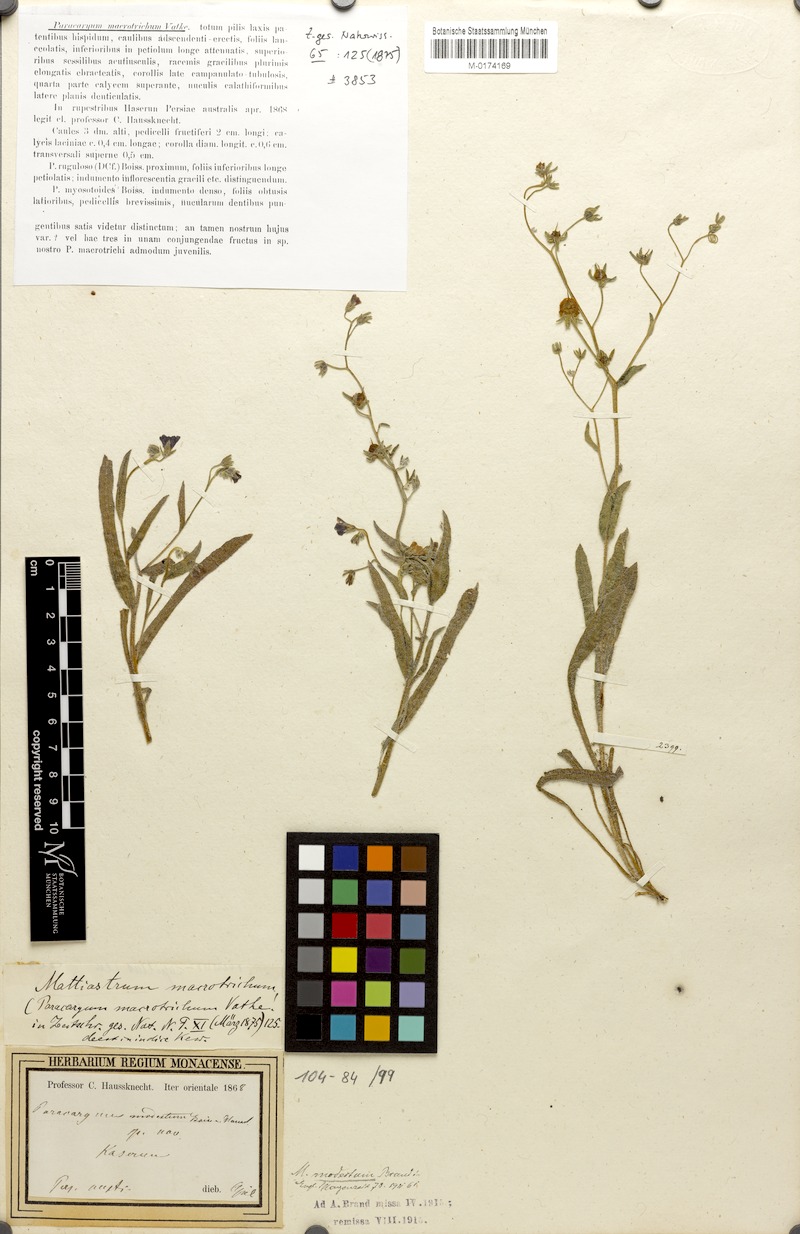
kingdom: Plantae
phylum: Tracheophyta
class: Magnoliopsida
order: Boraginales
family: Boraginaceae
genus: Paracaryum
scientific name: Paracaryum modestum
